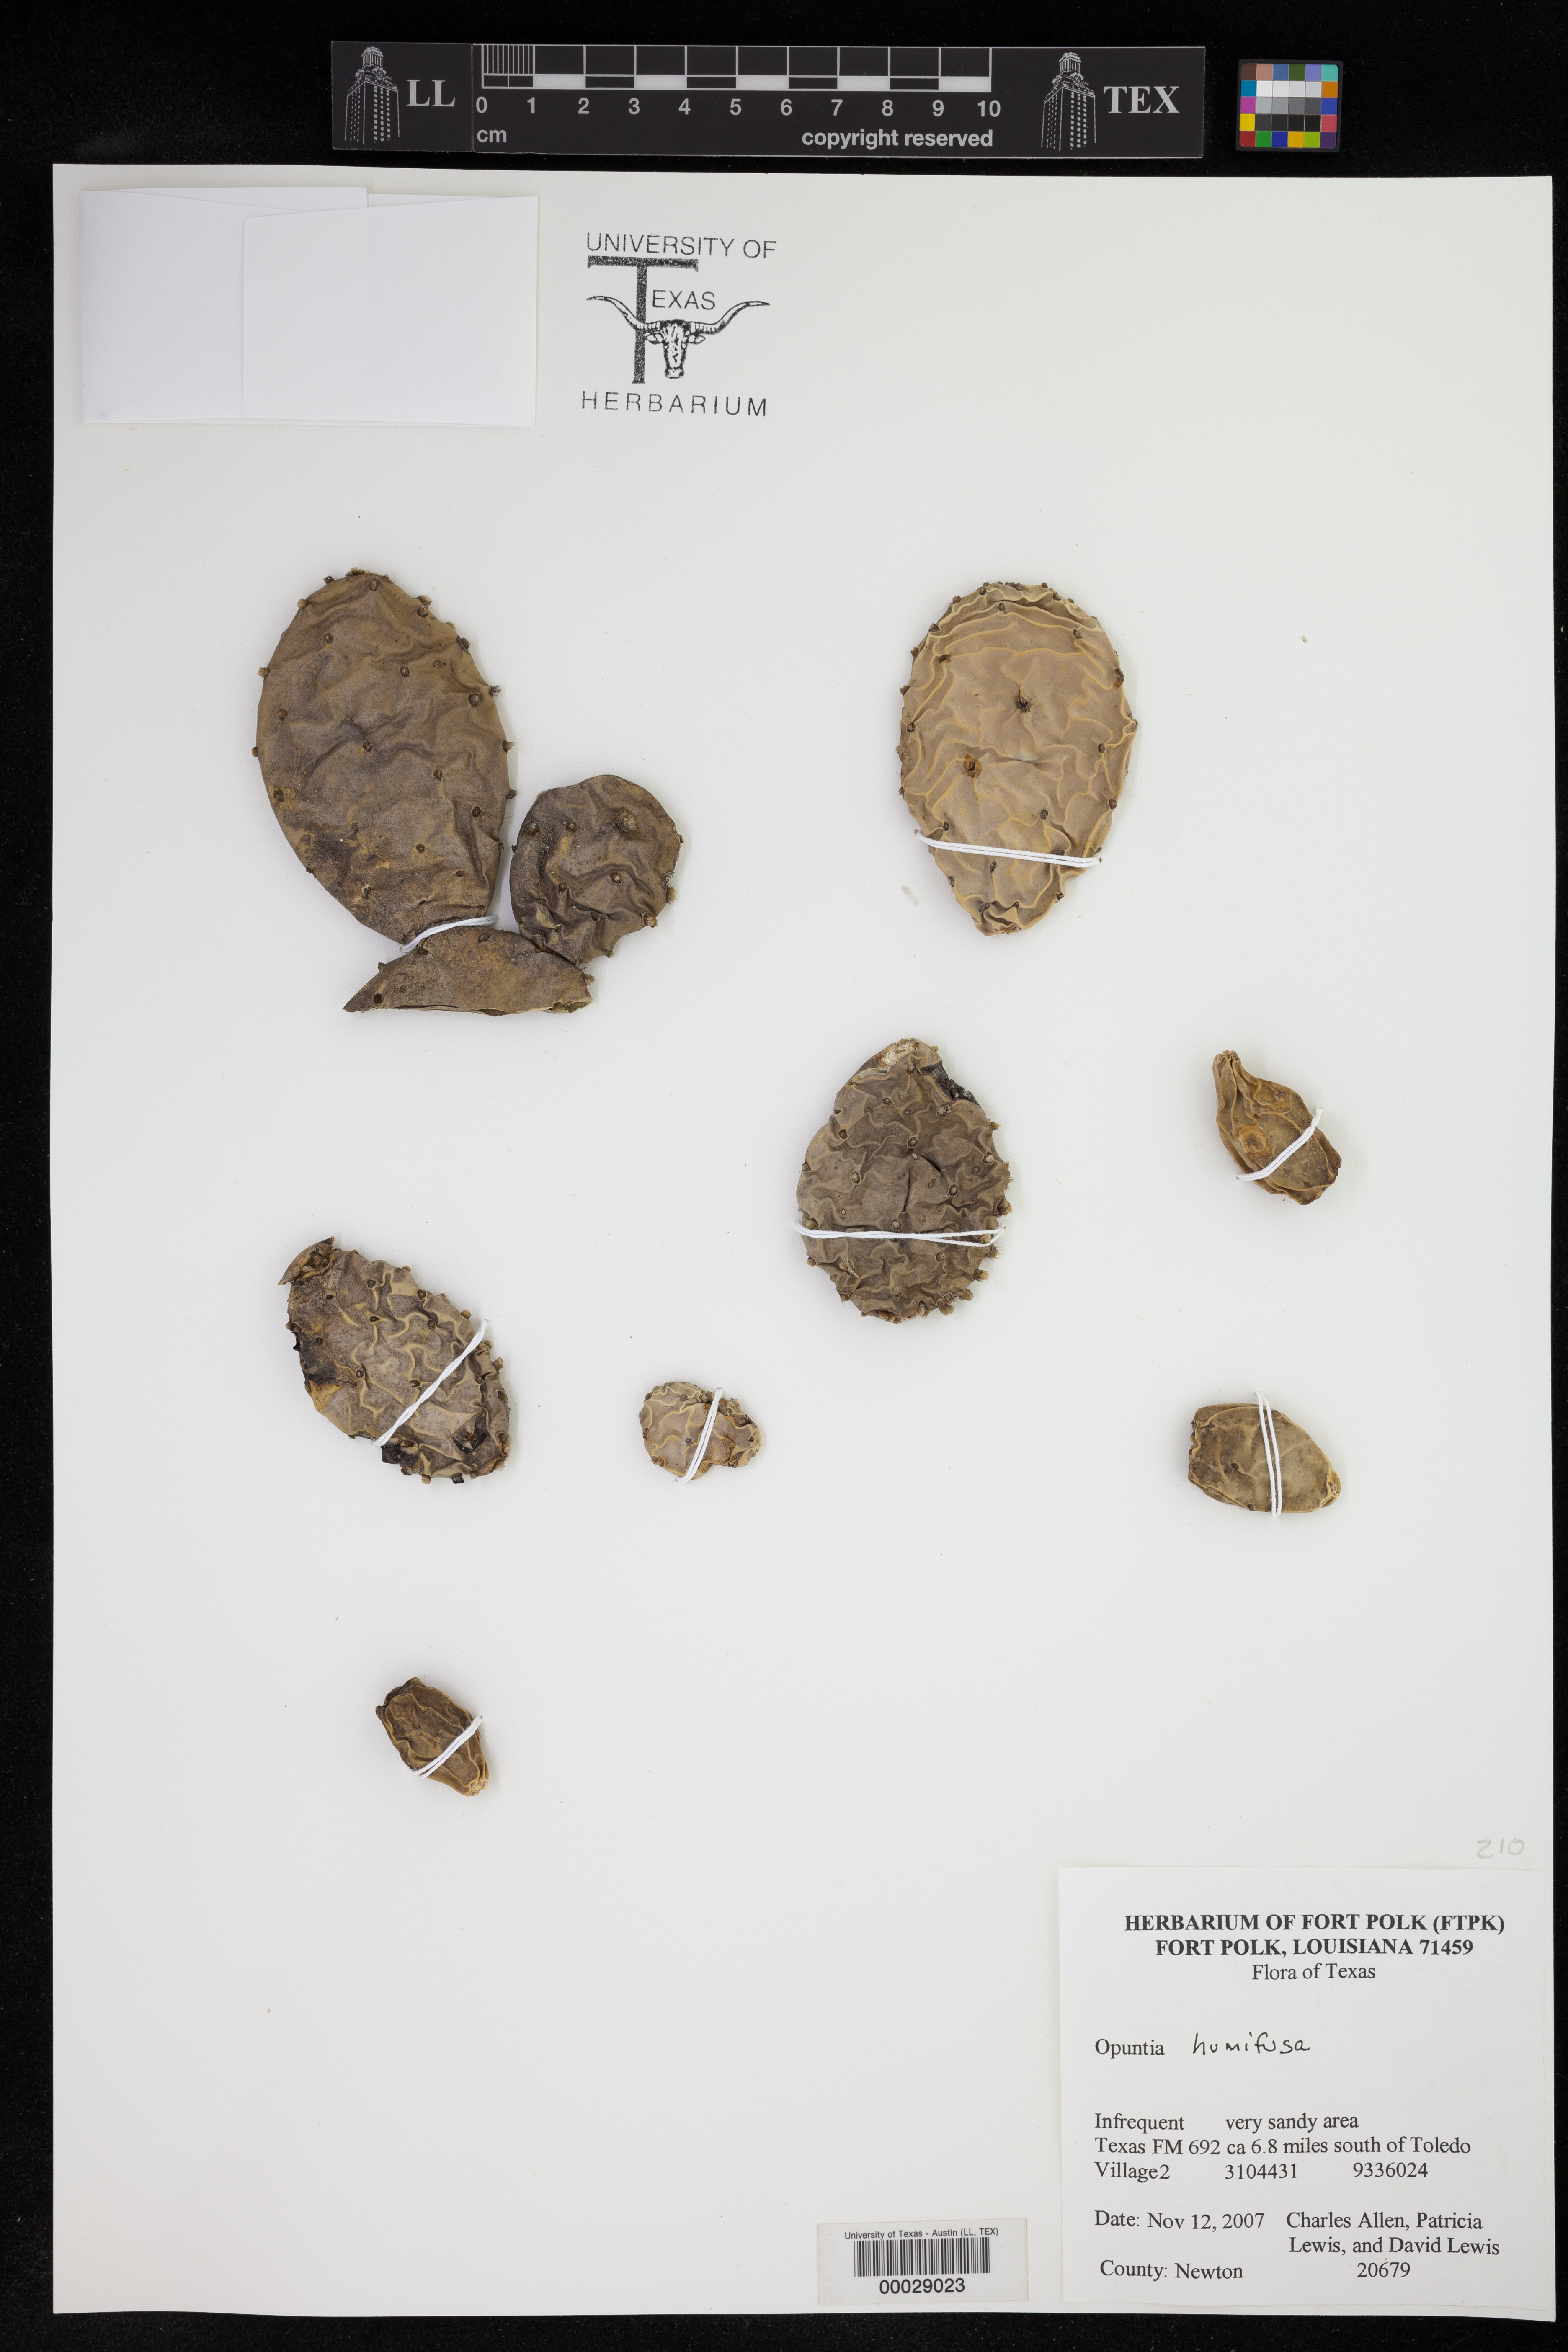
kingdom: Plantae
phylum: Tracheophyta
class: Magnoliopsida
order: Caryophyllales
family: Cactaceae
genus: Opuntia
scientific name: Opuntia humifusa
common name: Eastern prickly-pear
